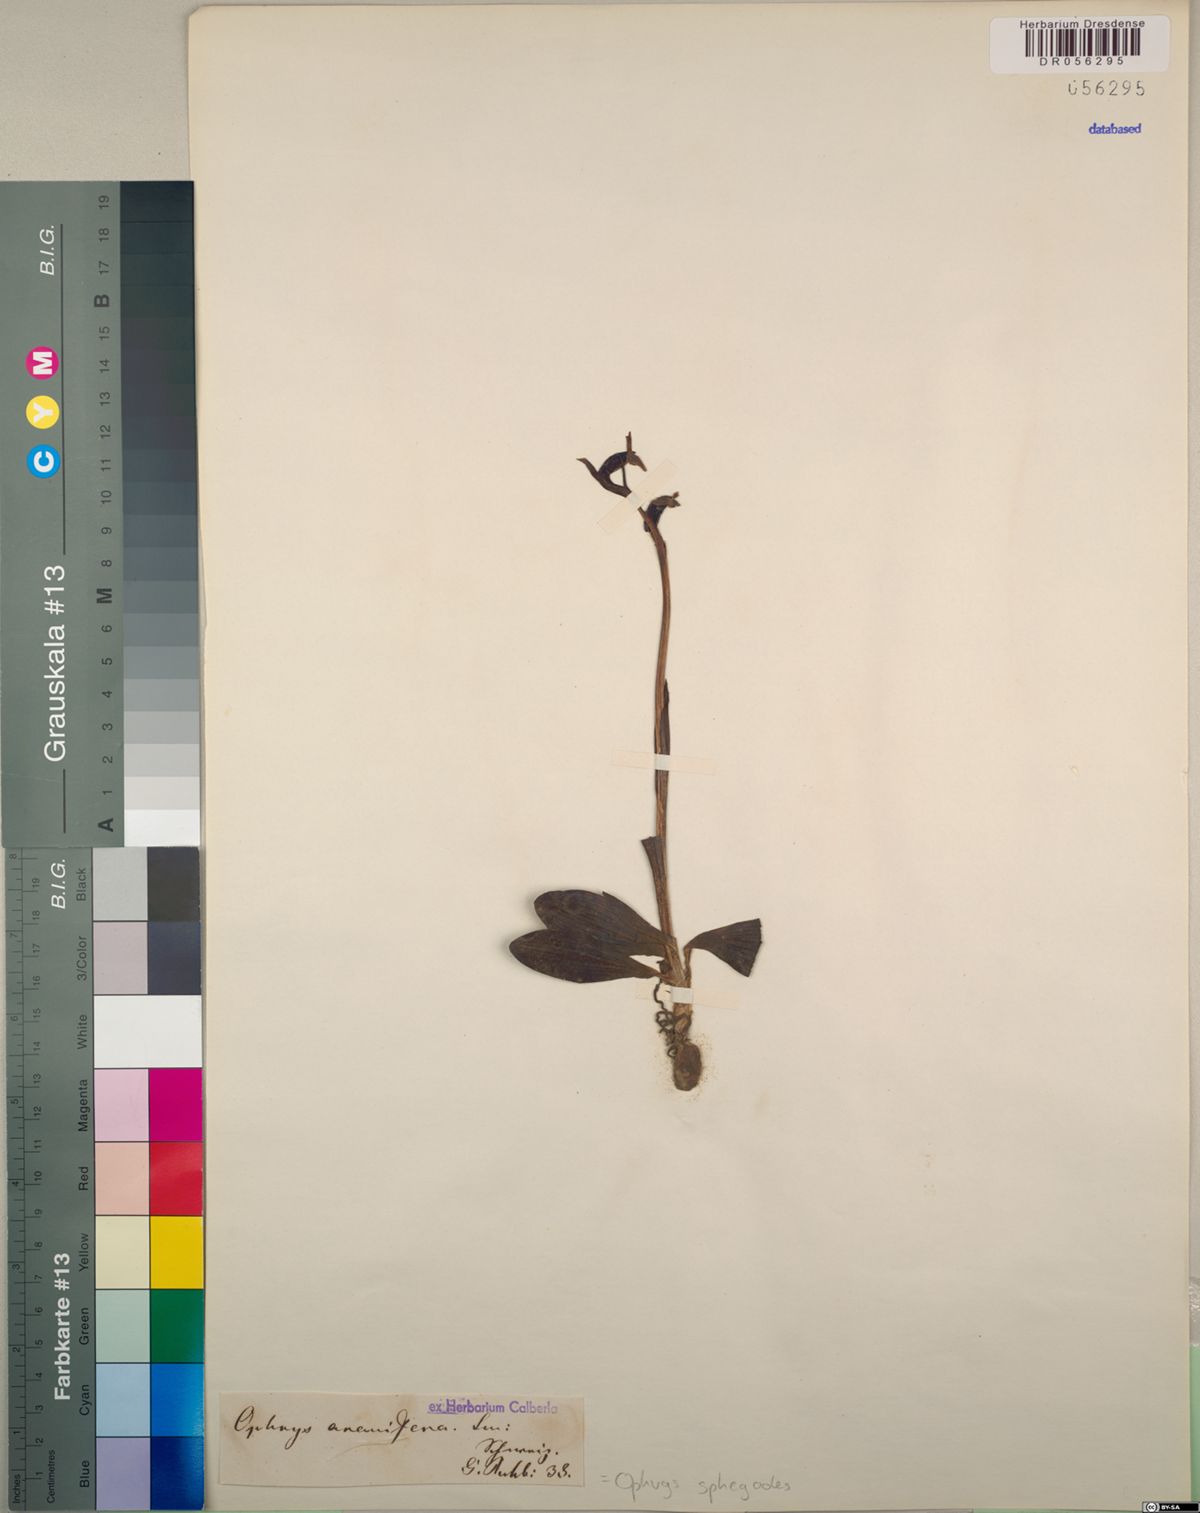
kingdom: Plantae
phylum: Tracheophyta
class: Liliopsida
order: Asparagales
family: Orchidaceae
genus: Ophrys
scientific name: Ophrys sphegodes
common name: Early spider-orchid
